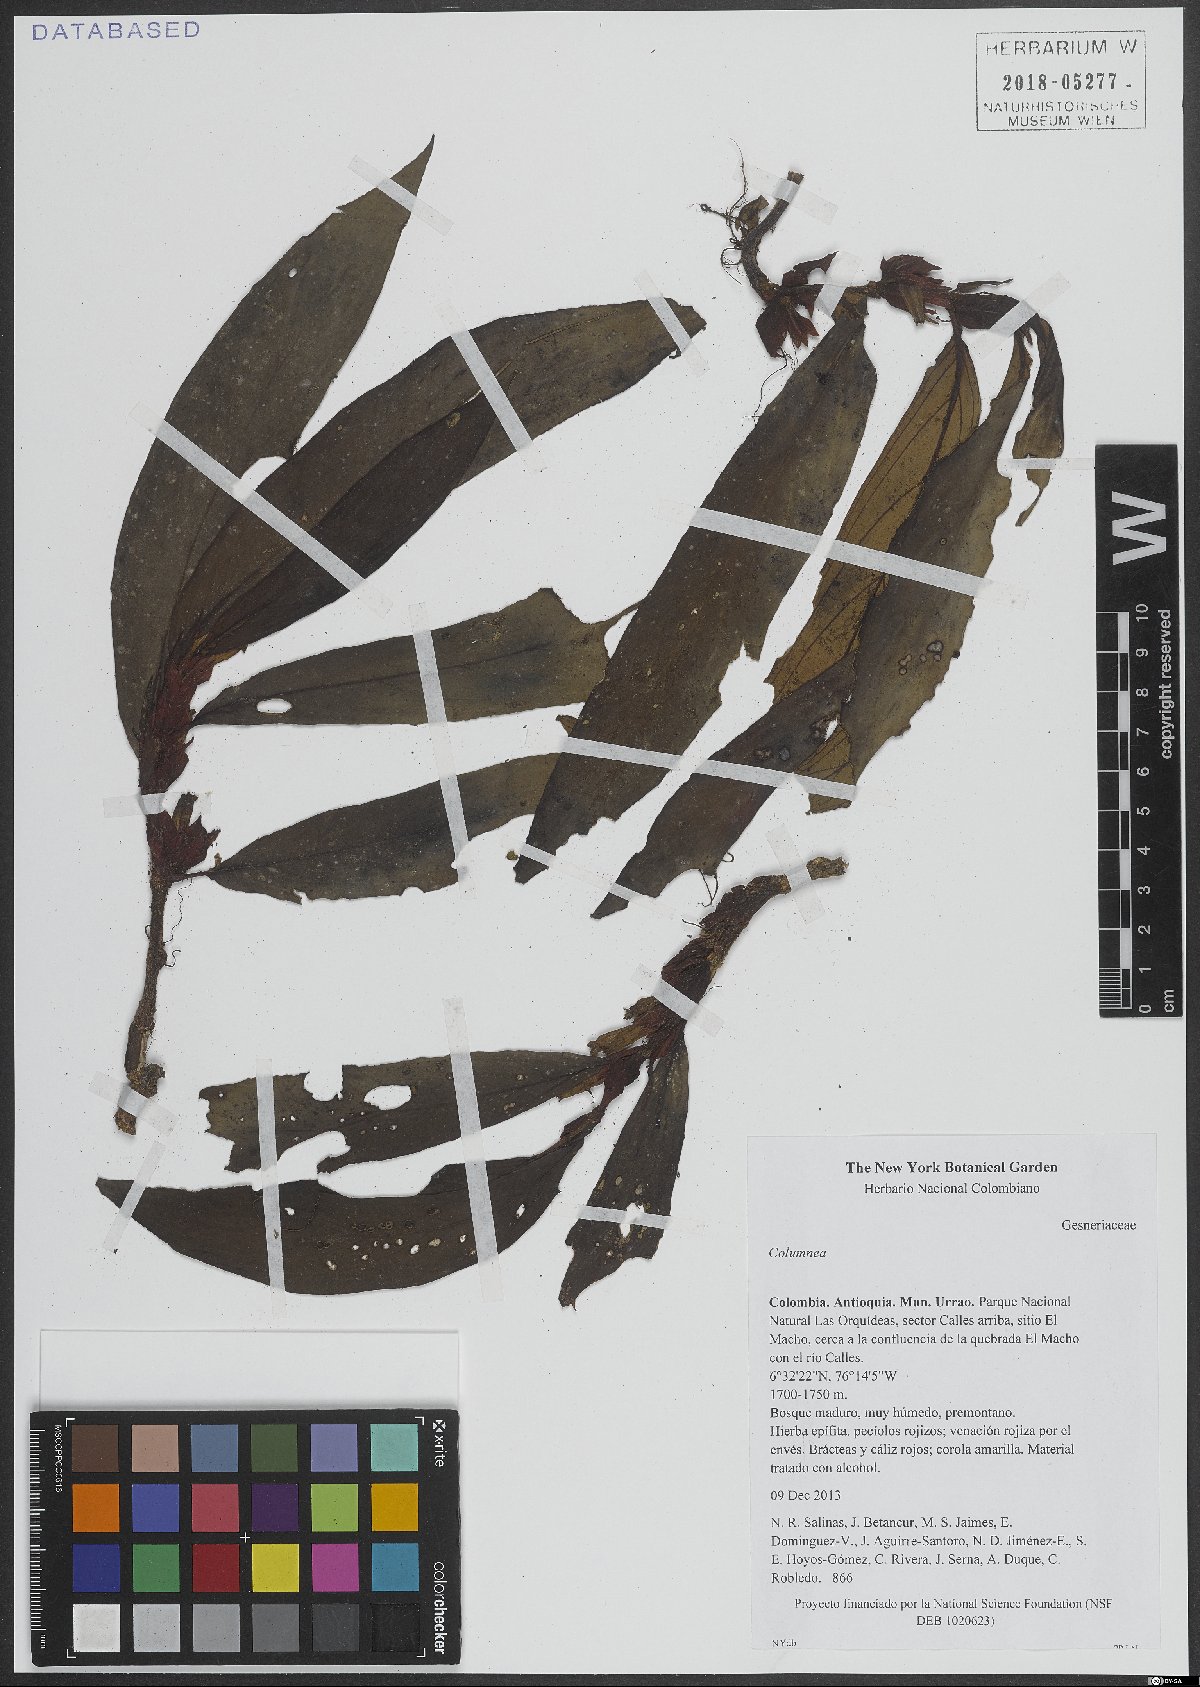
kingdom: Plantae
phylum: Tracheophyta
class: Magnoliopsida
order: Lamiales
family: Gesneriaceae
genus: Columnea
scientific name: Columnea
